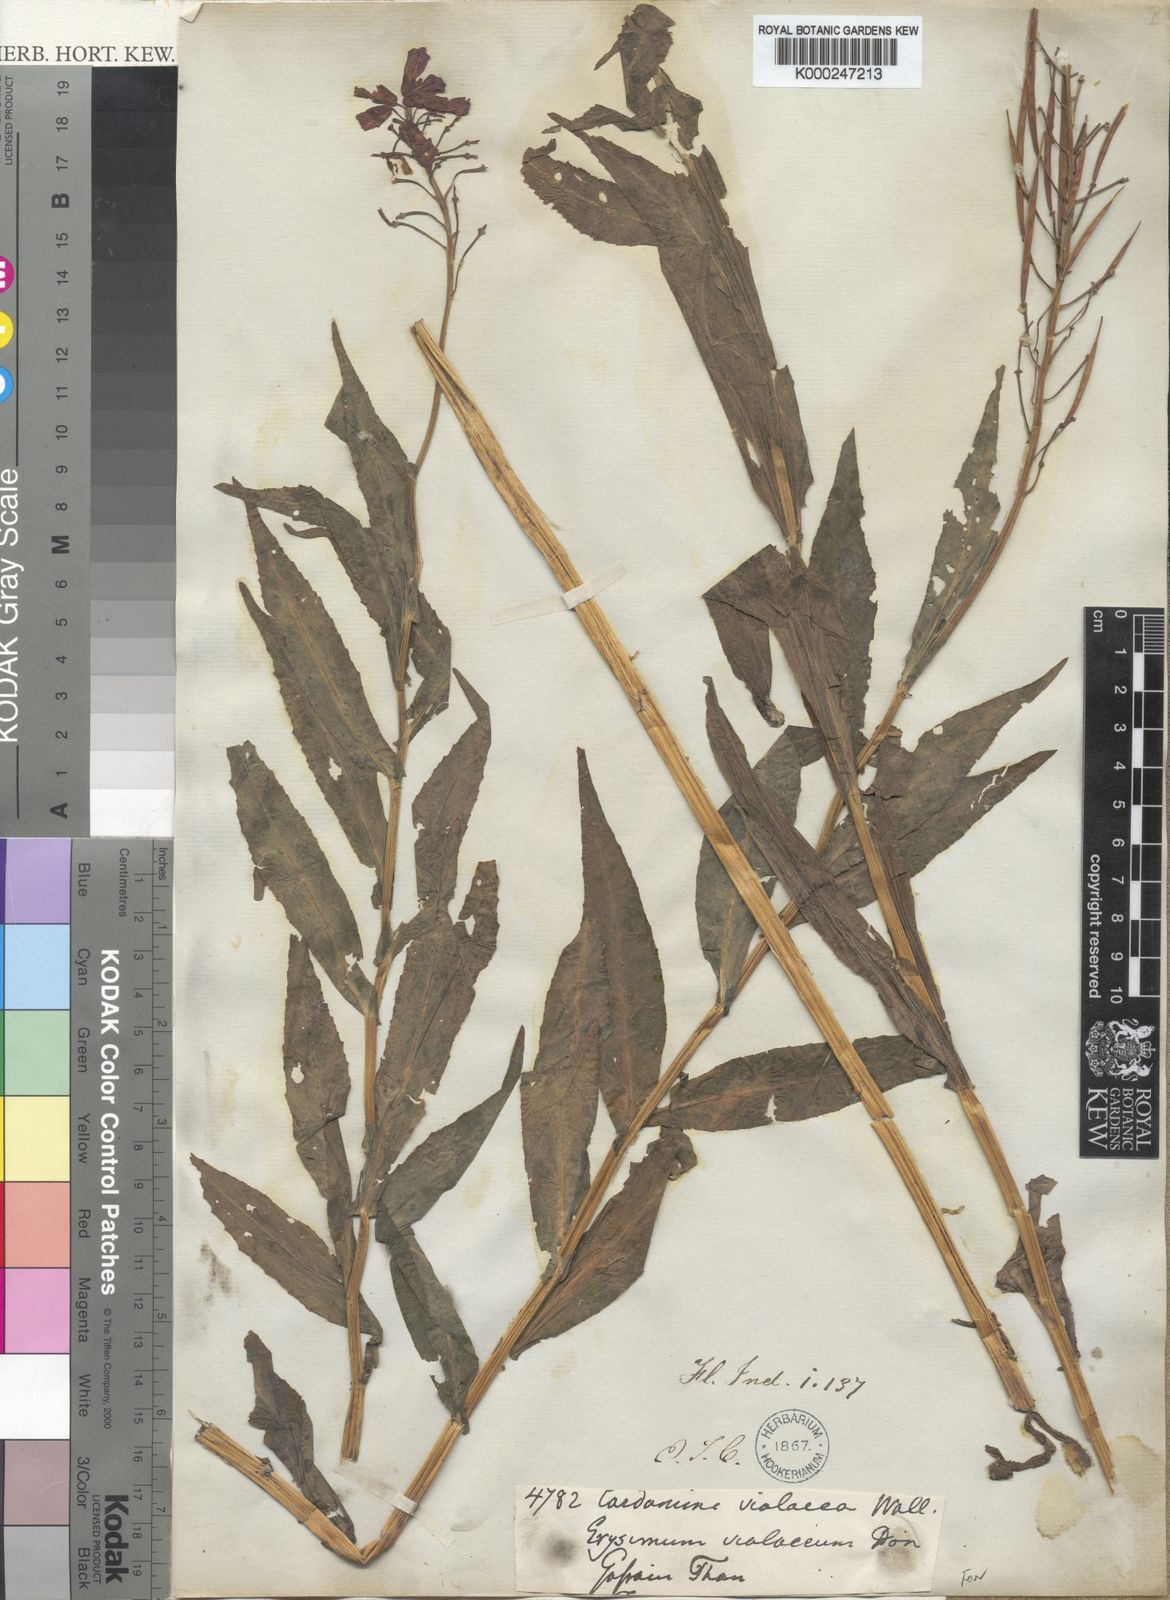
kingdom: Plantae
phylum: Tracheophyta
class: Magnoliopsida
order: Brassicales
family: Brassicaceae
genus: Cardamine
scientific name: Cardamine violacea
